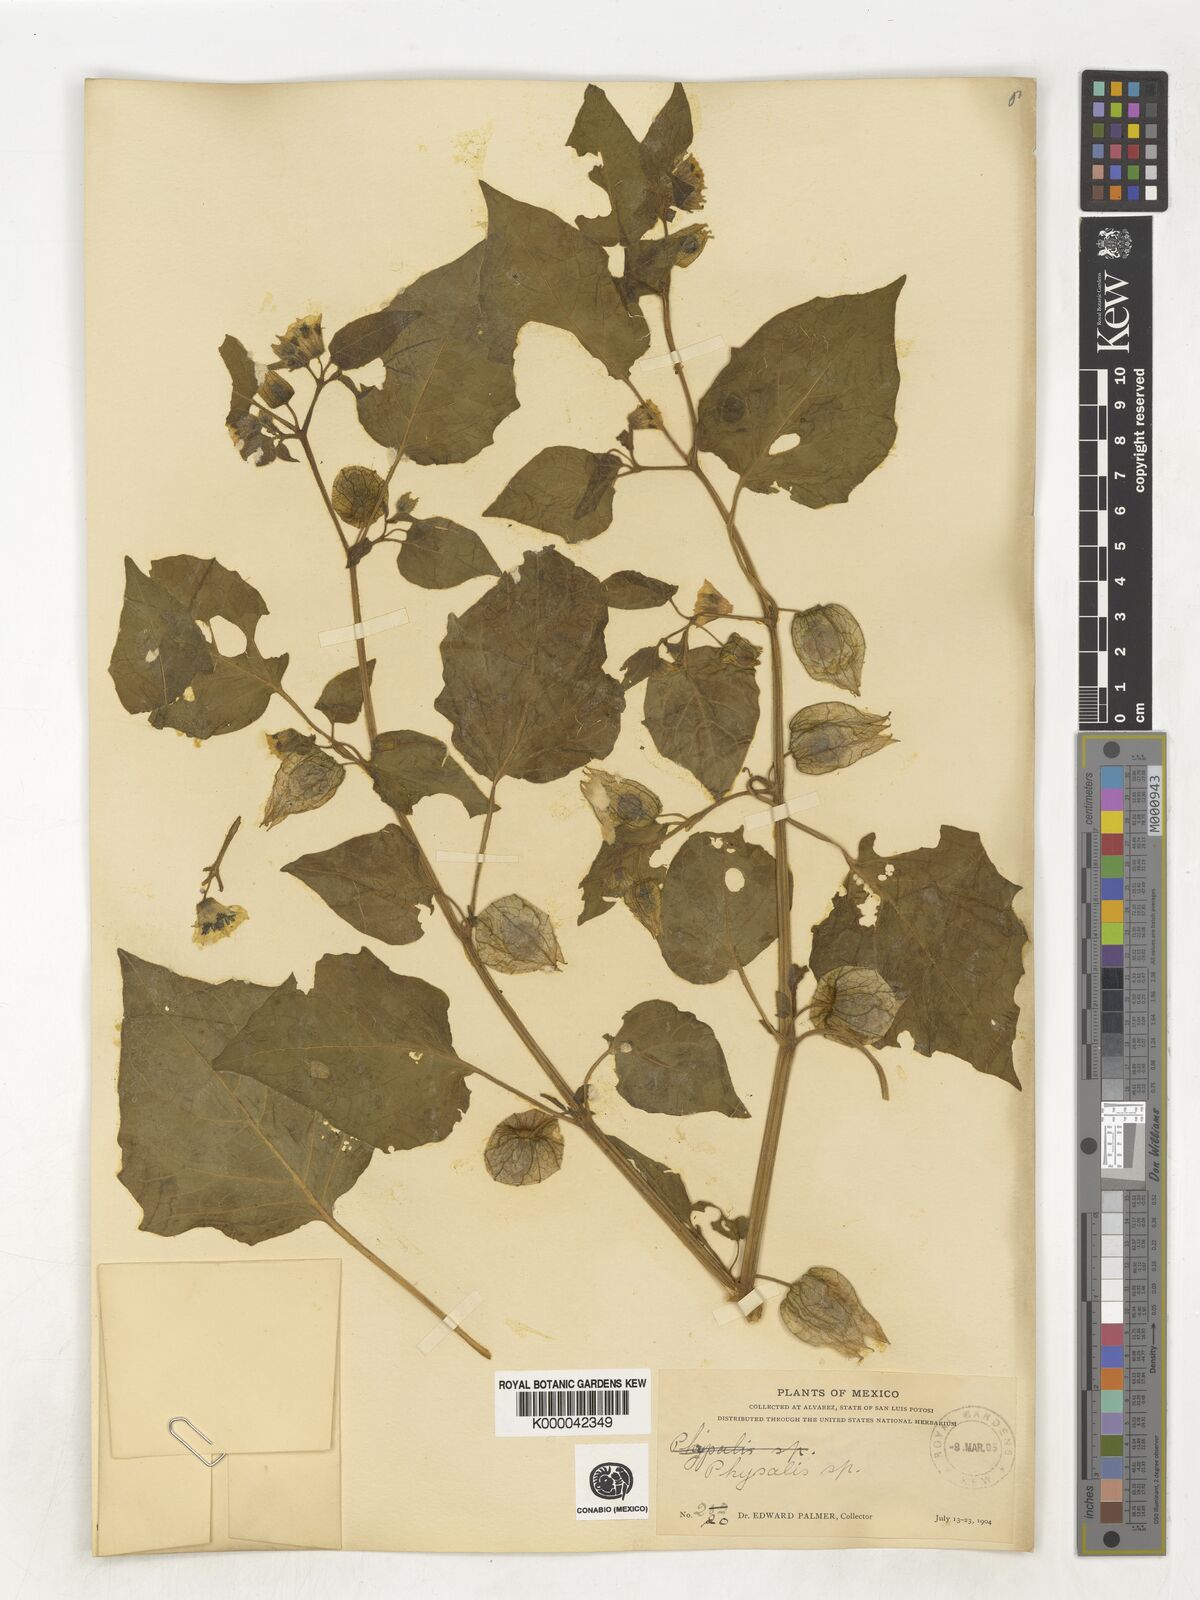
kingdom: Plantae
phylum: Tracheophyta
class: Magnoliopsida
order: Solanales
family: Solanaceae
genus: Physalis
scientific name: Physalis
